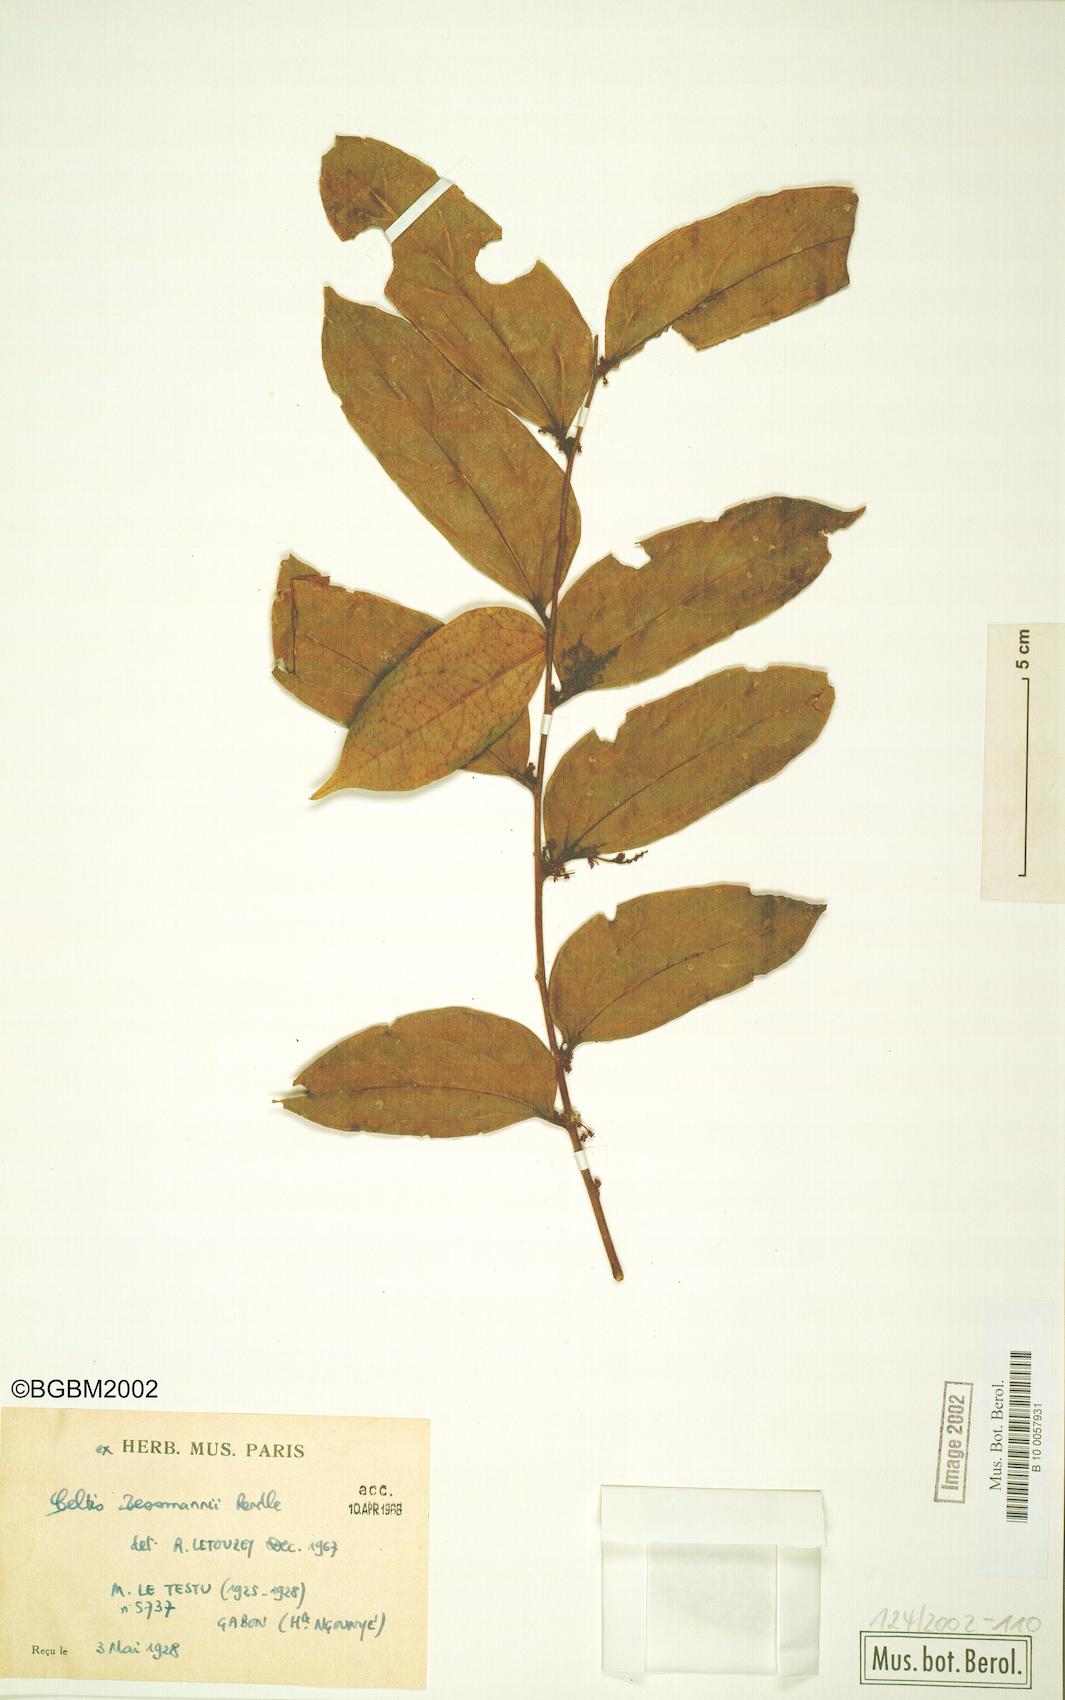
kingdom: Plantae
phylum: Tracheophyta
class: Magnoliopsida
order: Rosales
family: Cannabaceae
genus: Celtis
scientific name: Celtis tessmannii
